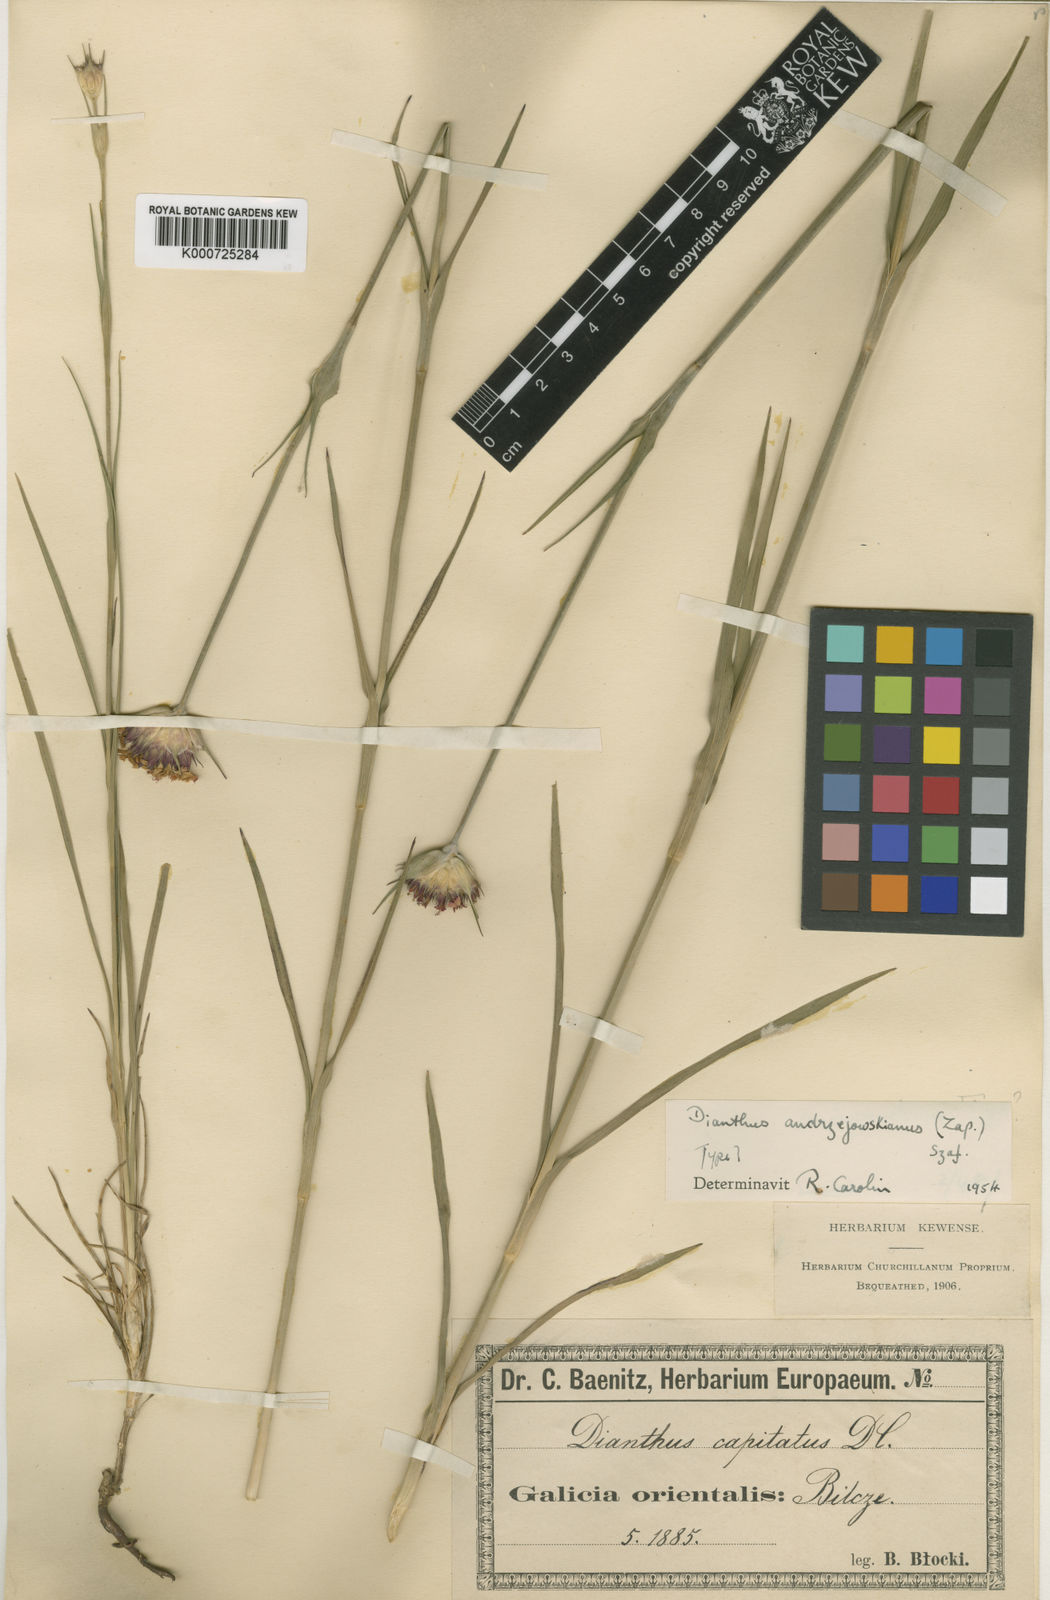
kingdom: Plantae
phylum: Tracheophyta
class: Magnoliopsida
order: Caryophyllales
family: Caryophyllaceae
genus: Dianthus
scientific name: Dianthus
